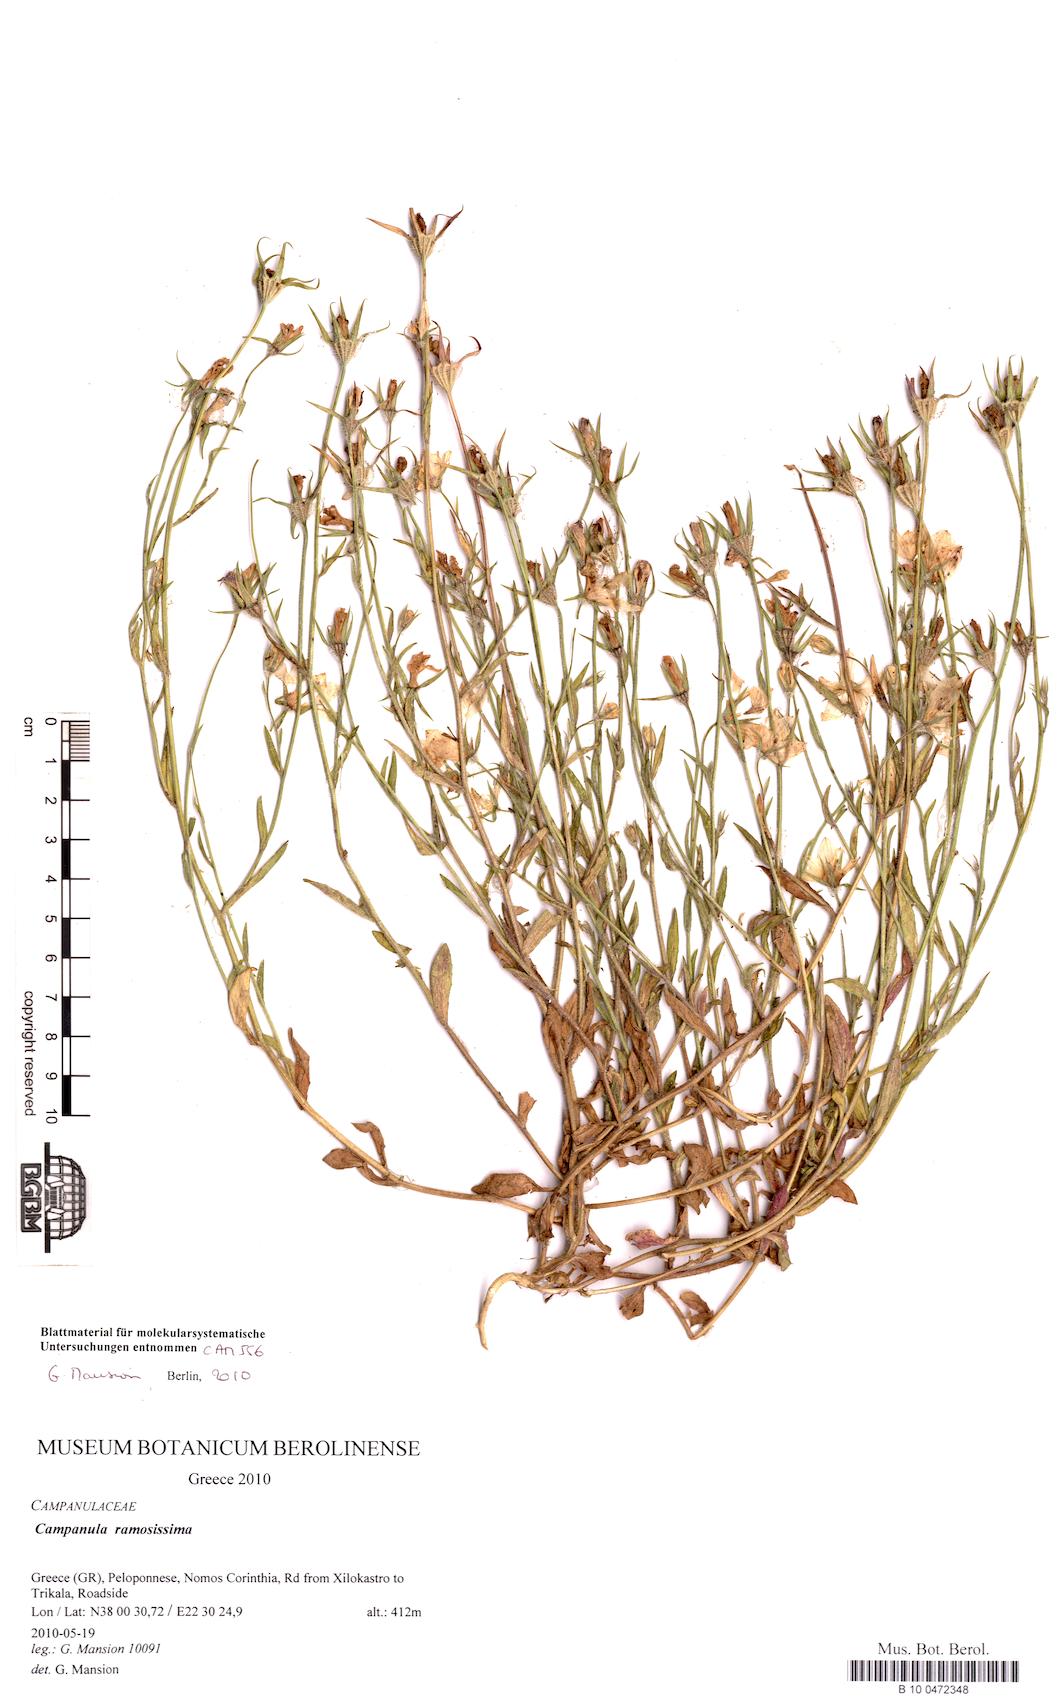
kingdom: Plantae
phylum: Tracheophyta
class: Magnoliopsida
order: Asterales
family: Campanulaceae
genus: Campanula
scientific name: Campanula ramosissima
